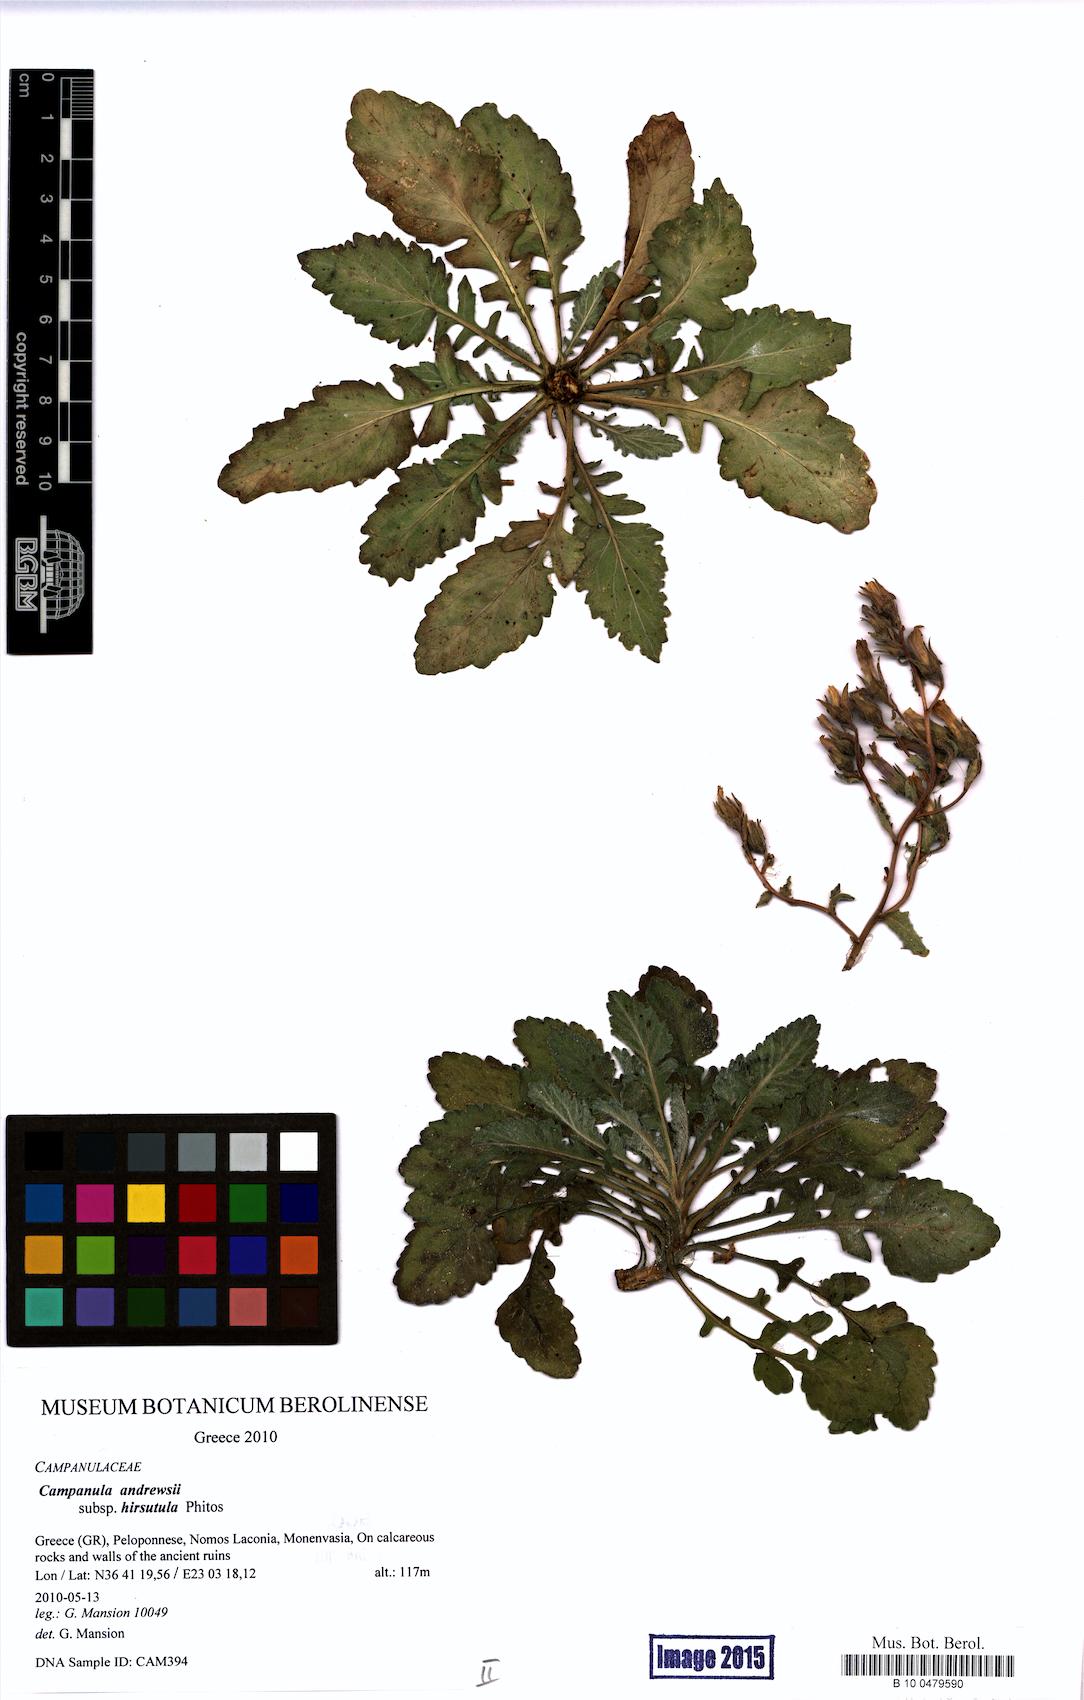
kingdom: Plantae
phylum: Tracheophyta
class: Magnoliopsida
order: Asterales
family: Campanulaceae
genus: Campanula
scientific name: Campanula andrewsii
